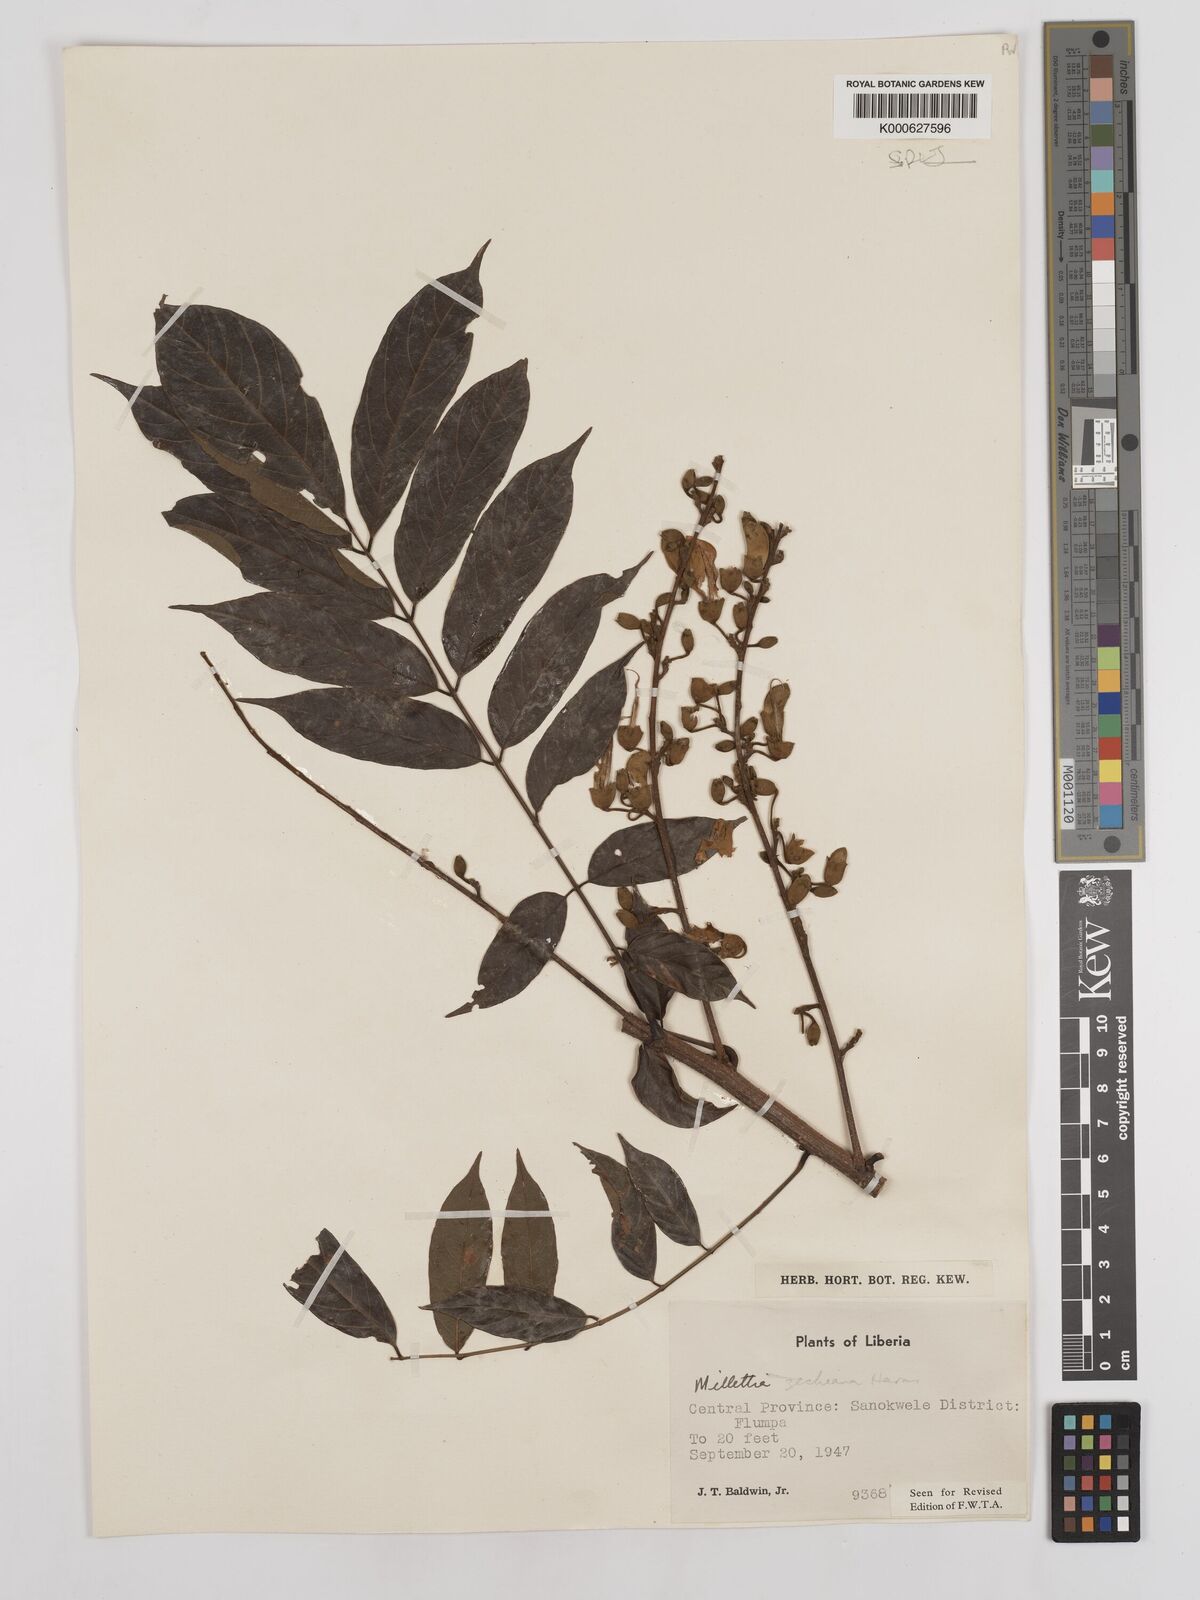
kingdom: Plantae
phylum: Tracheophyta
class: Magnoliopsida
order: Fabales
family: Fabaceae
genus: Millettia
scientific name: Millettia zechiana
